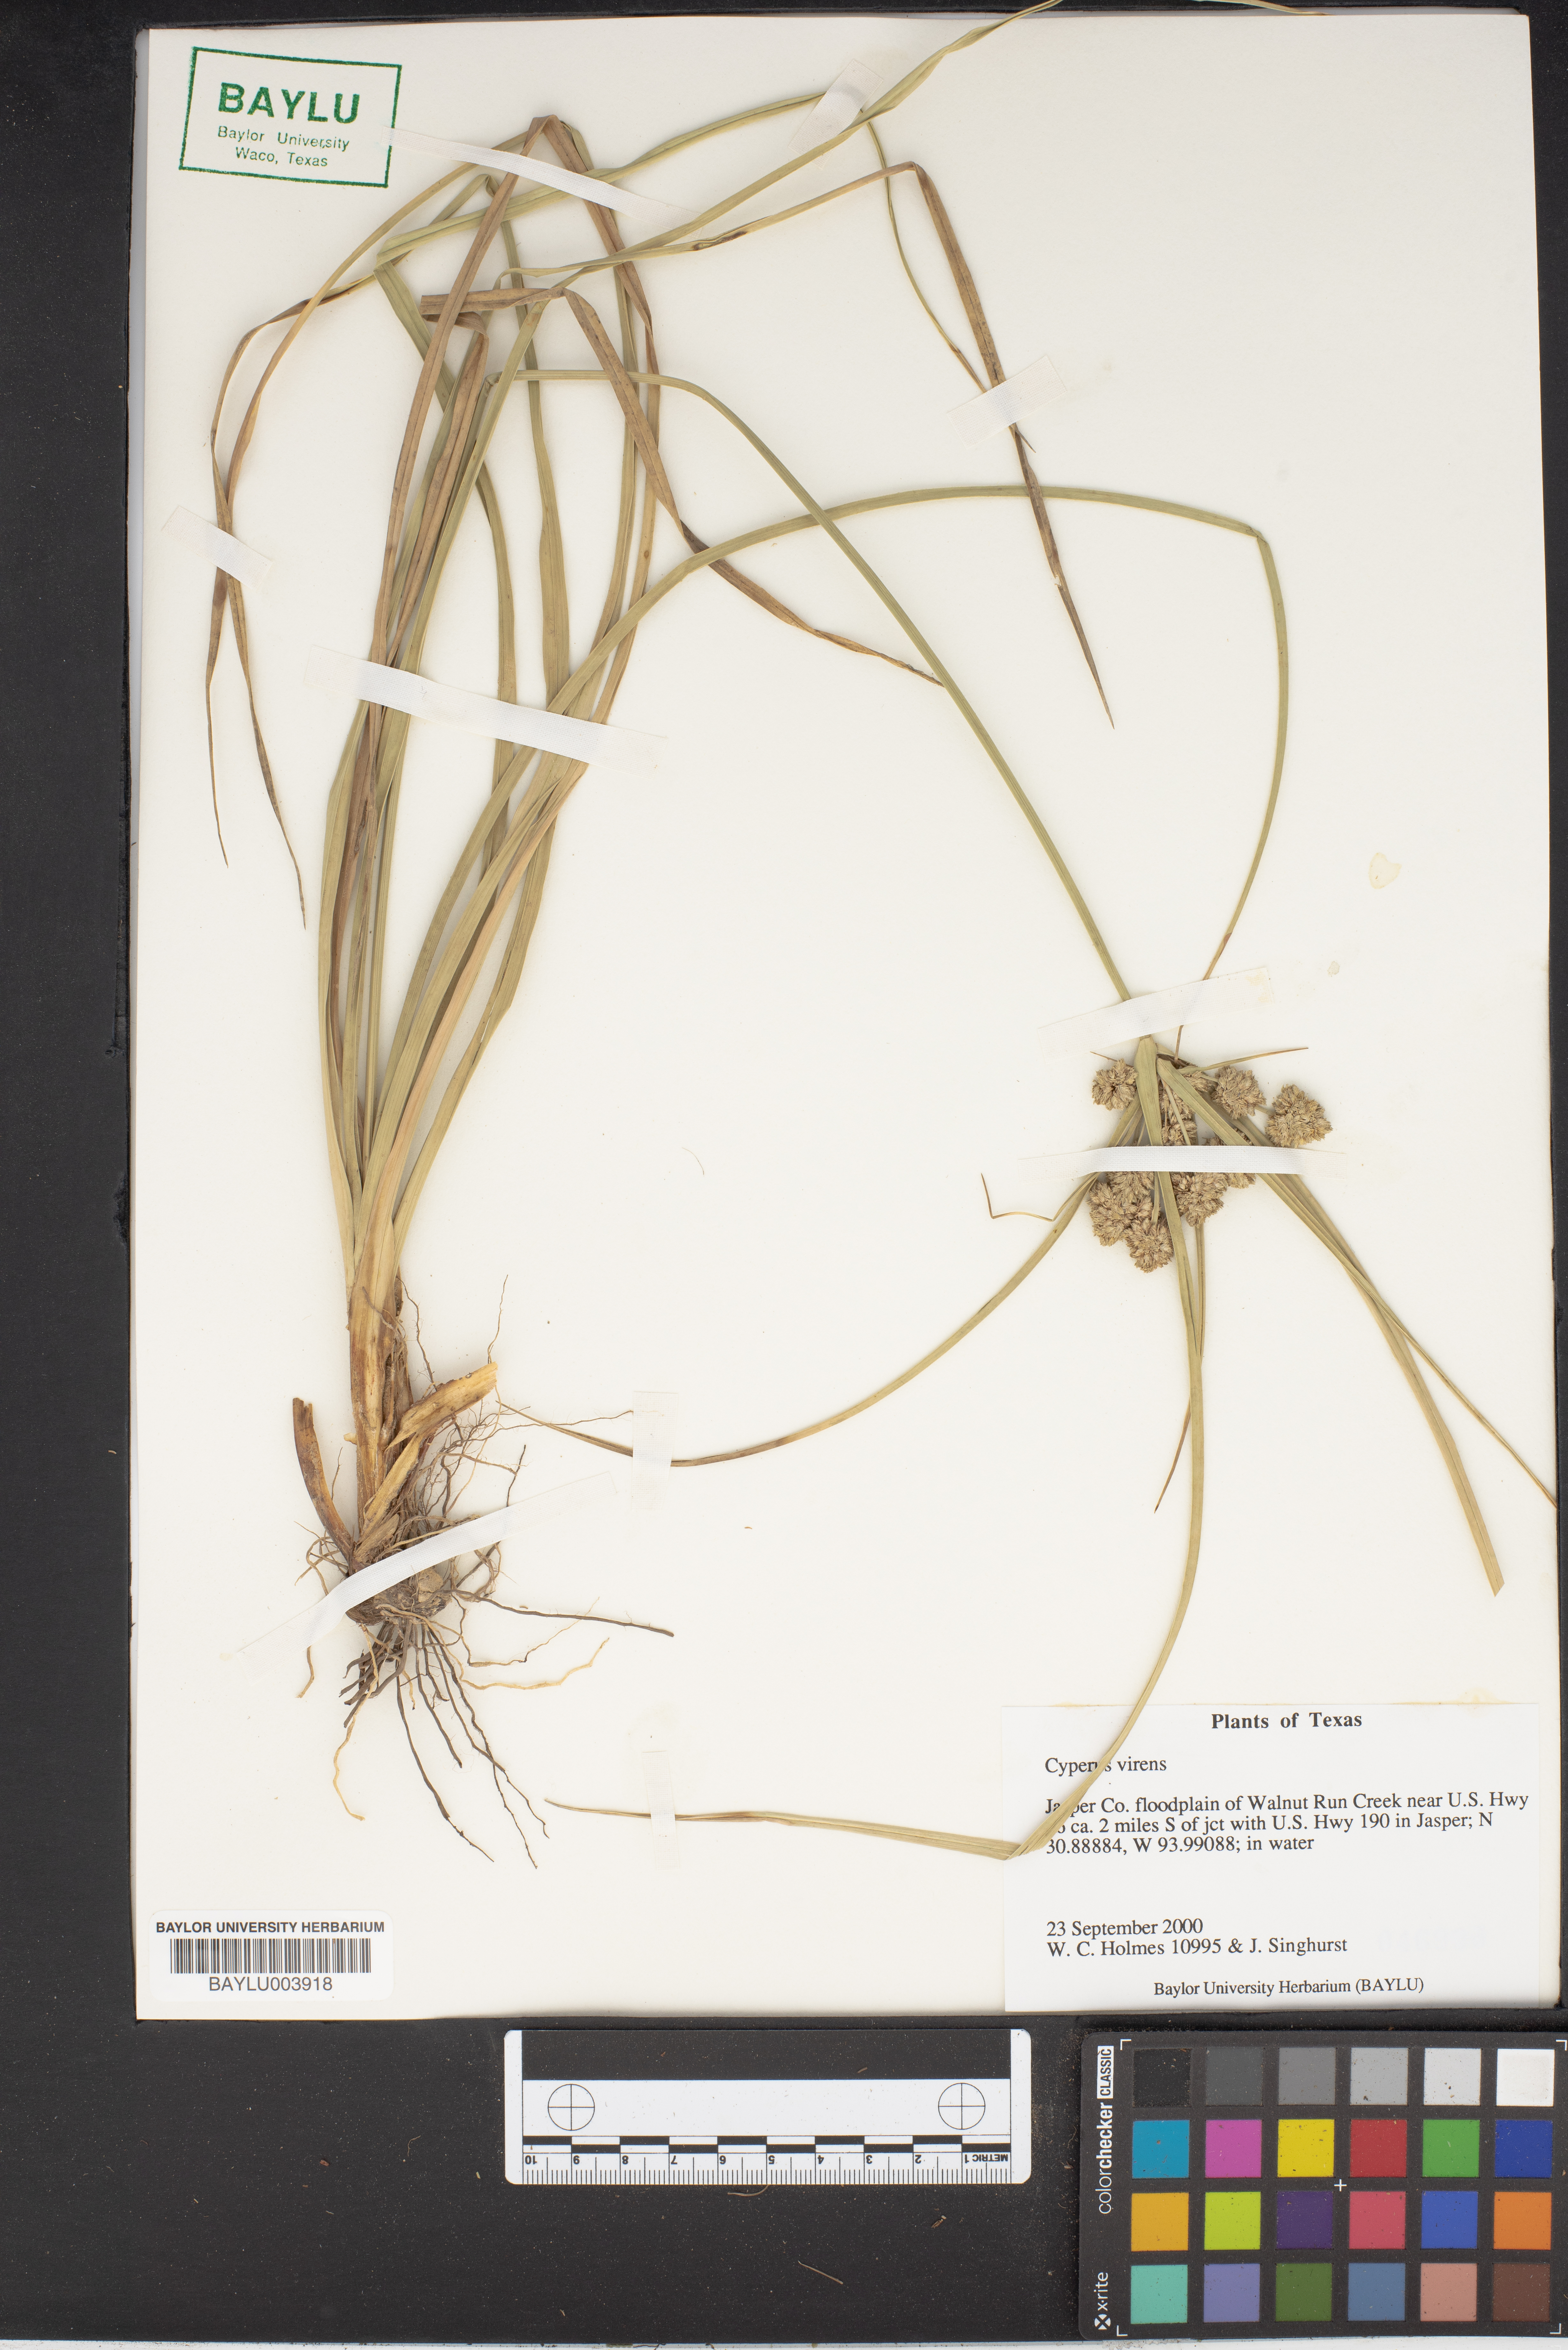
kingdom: Plantae
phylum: Tracheophyta
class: Liliopsida
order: Poales
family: Cyperaceae
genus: Cyperus
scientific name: Cyperus virens
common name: Green flatsedge
